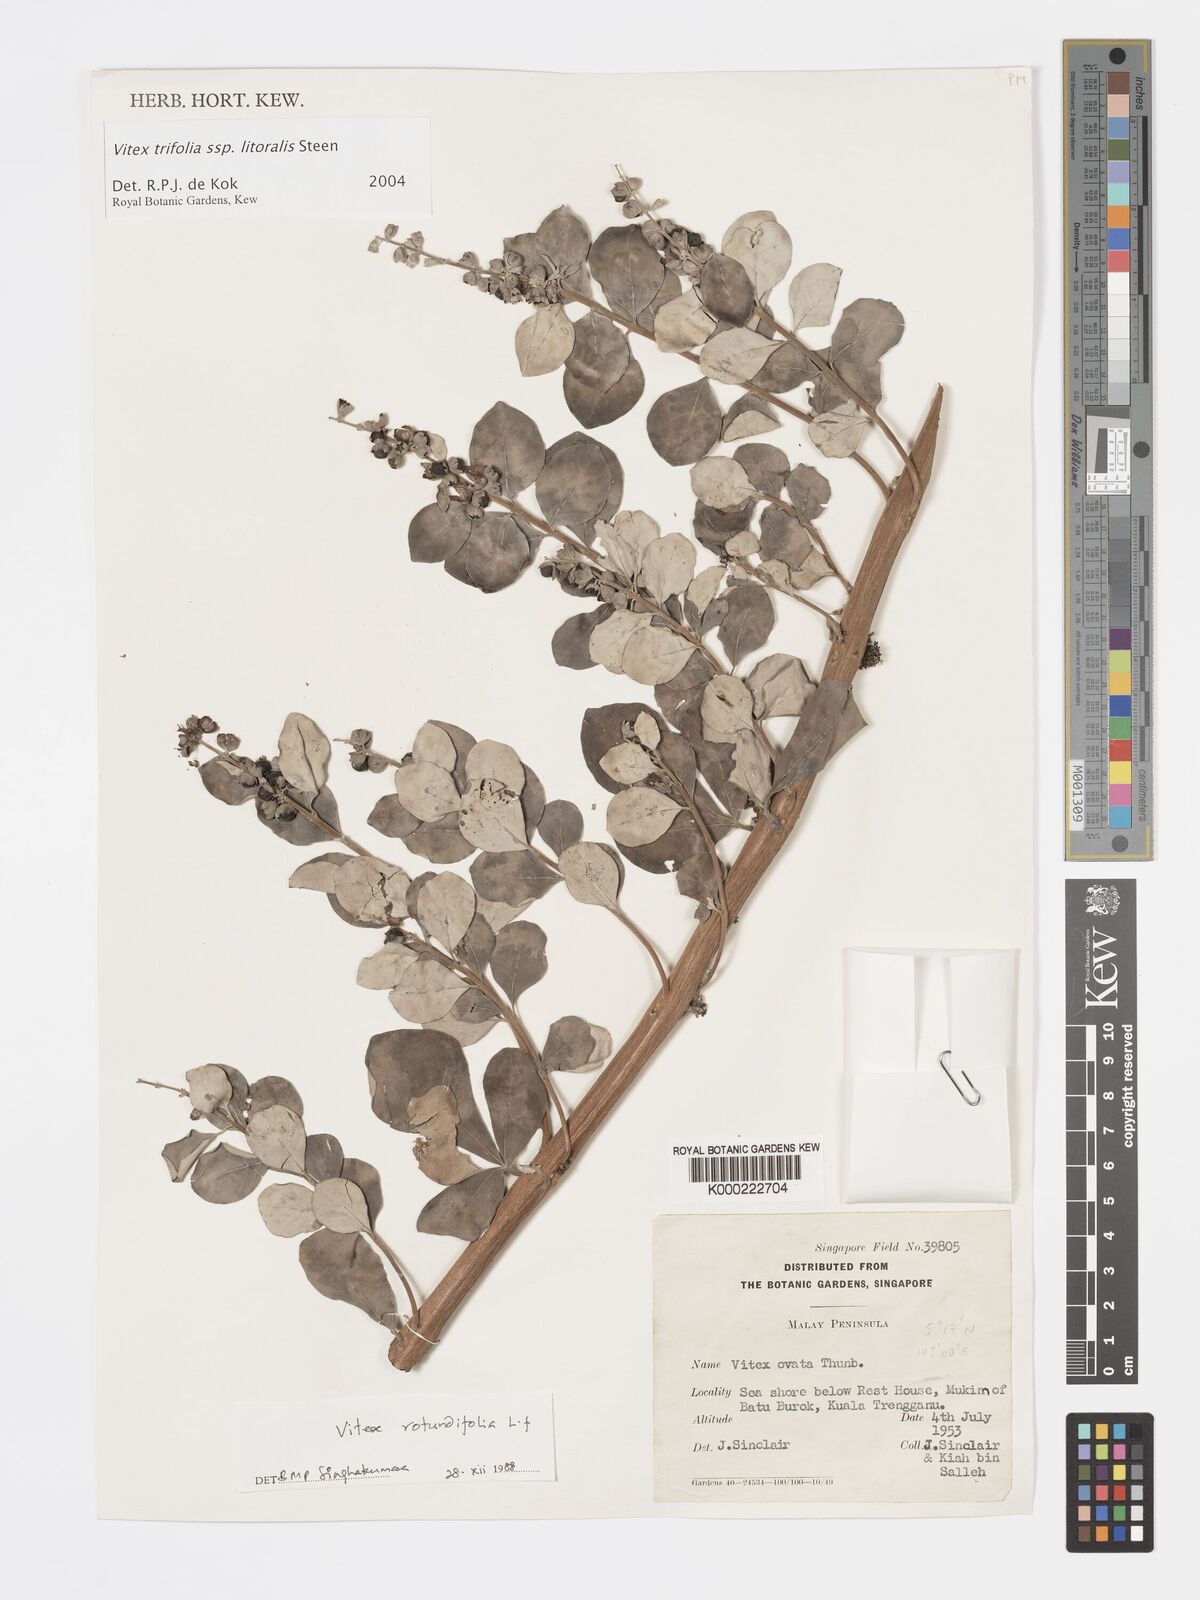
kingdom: Plantae
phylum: Tracheophyta
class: Magnoliopsida
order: Lamiales
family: Lamiaceae
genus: Vitex
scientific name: Vitex rotundifolia
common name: Beach vitex
